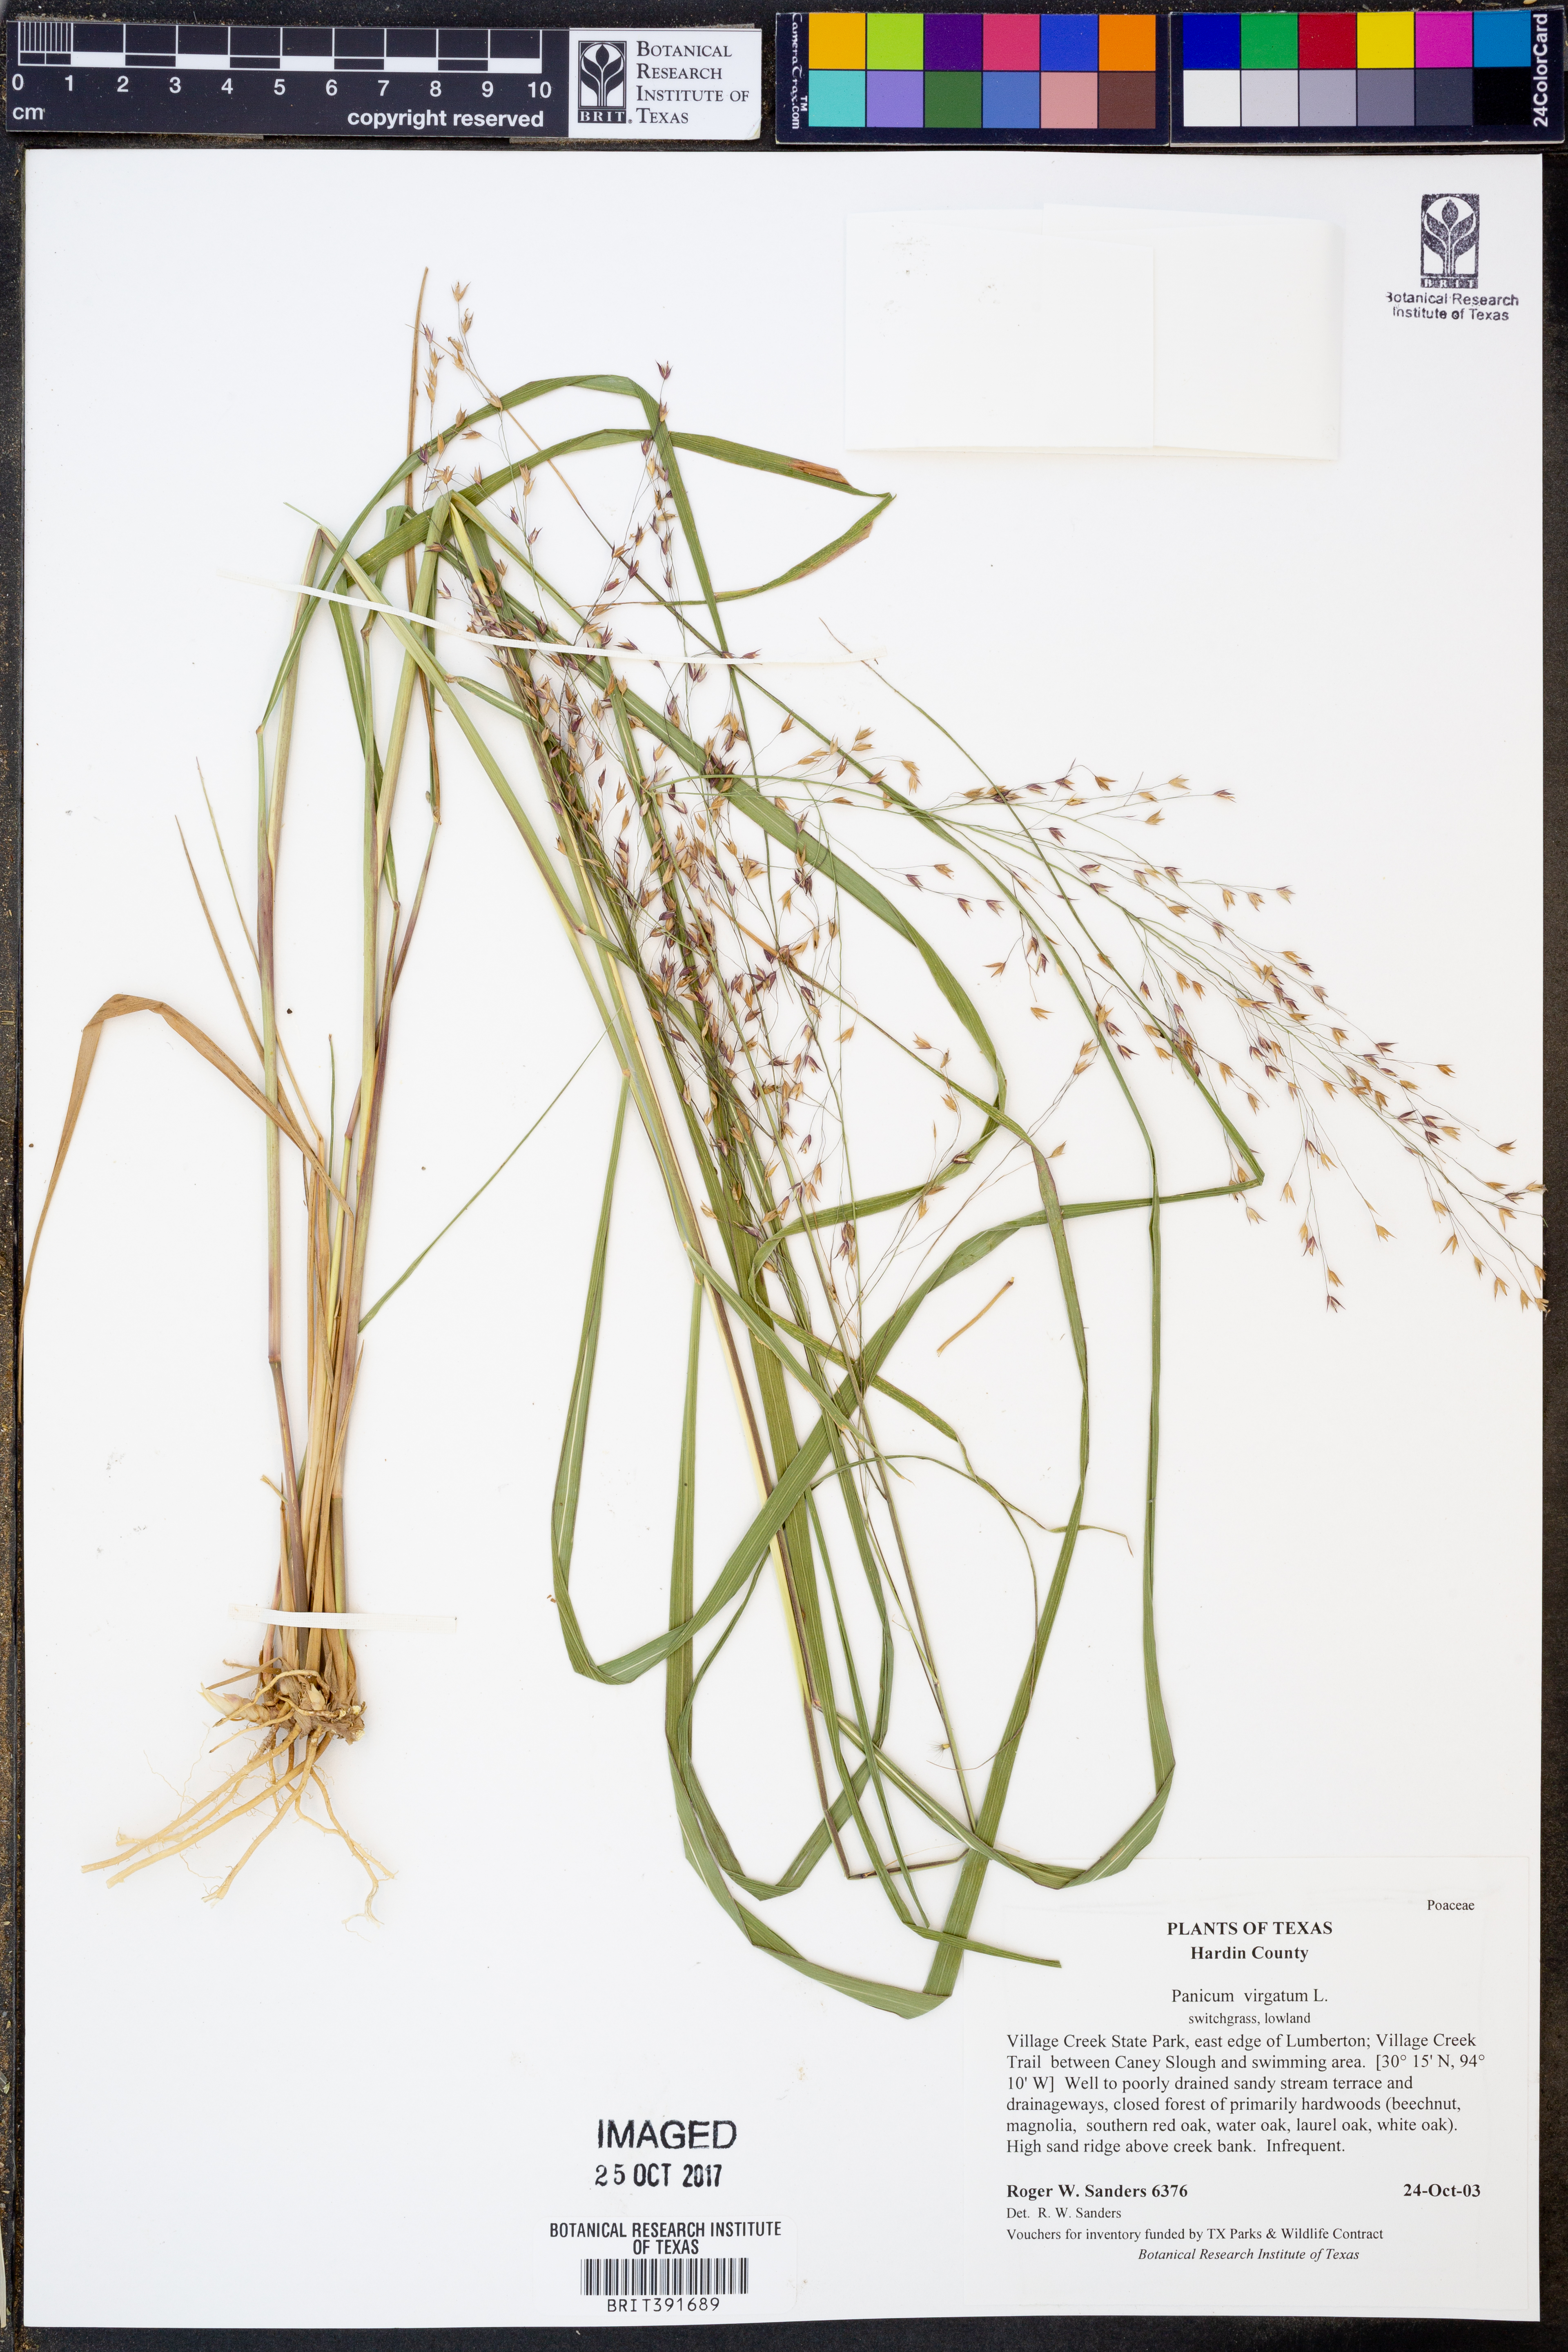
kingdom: Plantae
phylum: Tracheophyta
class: Liliopsida
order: Poales
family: Poaceae
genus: Panicum
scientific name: Panicum virgatum
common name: Switchgrass
